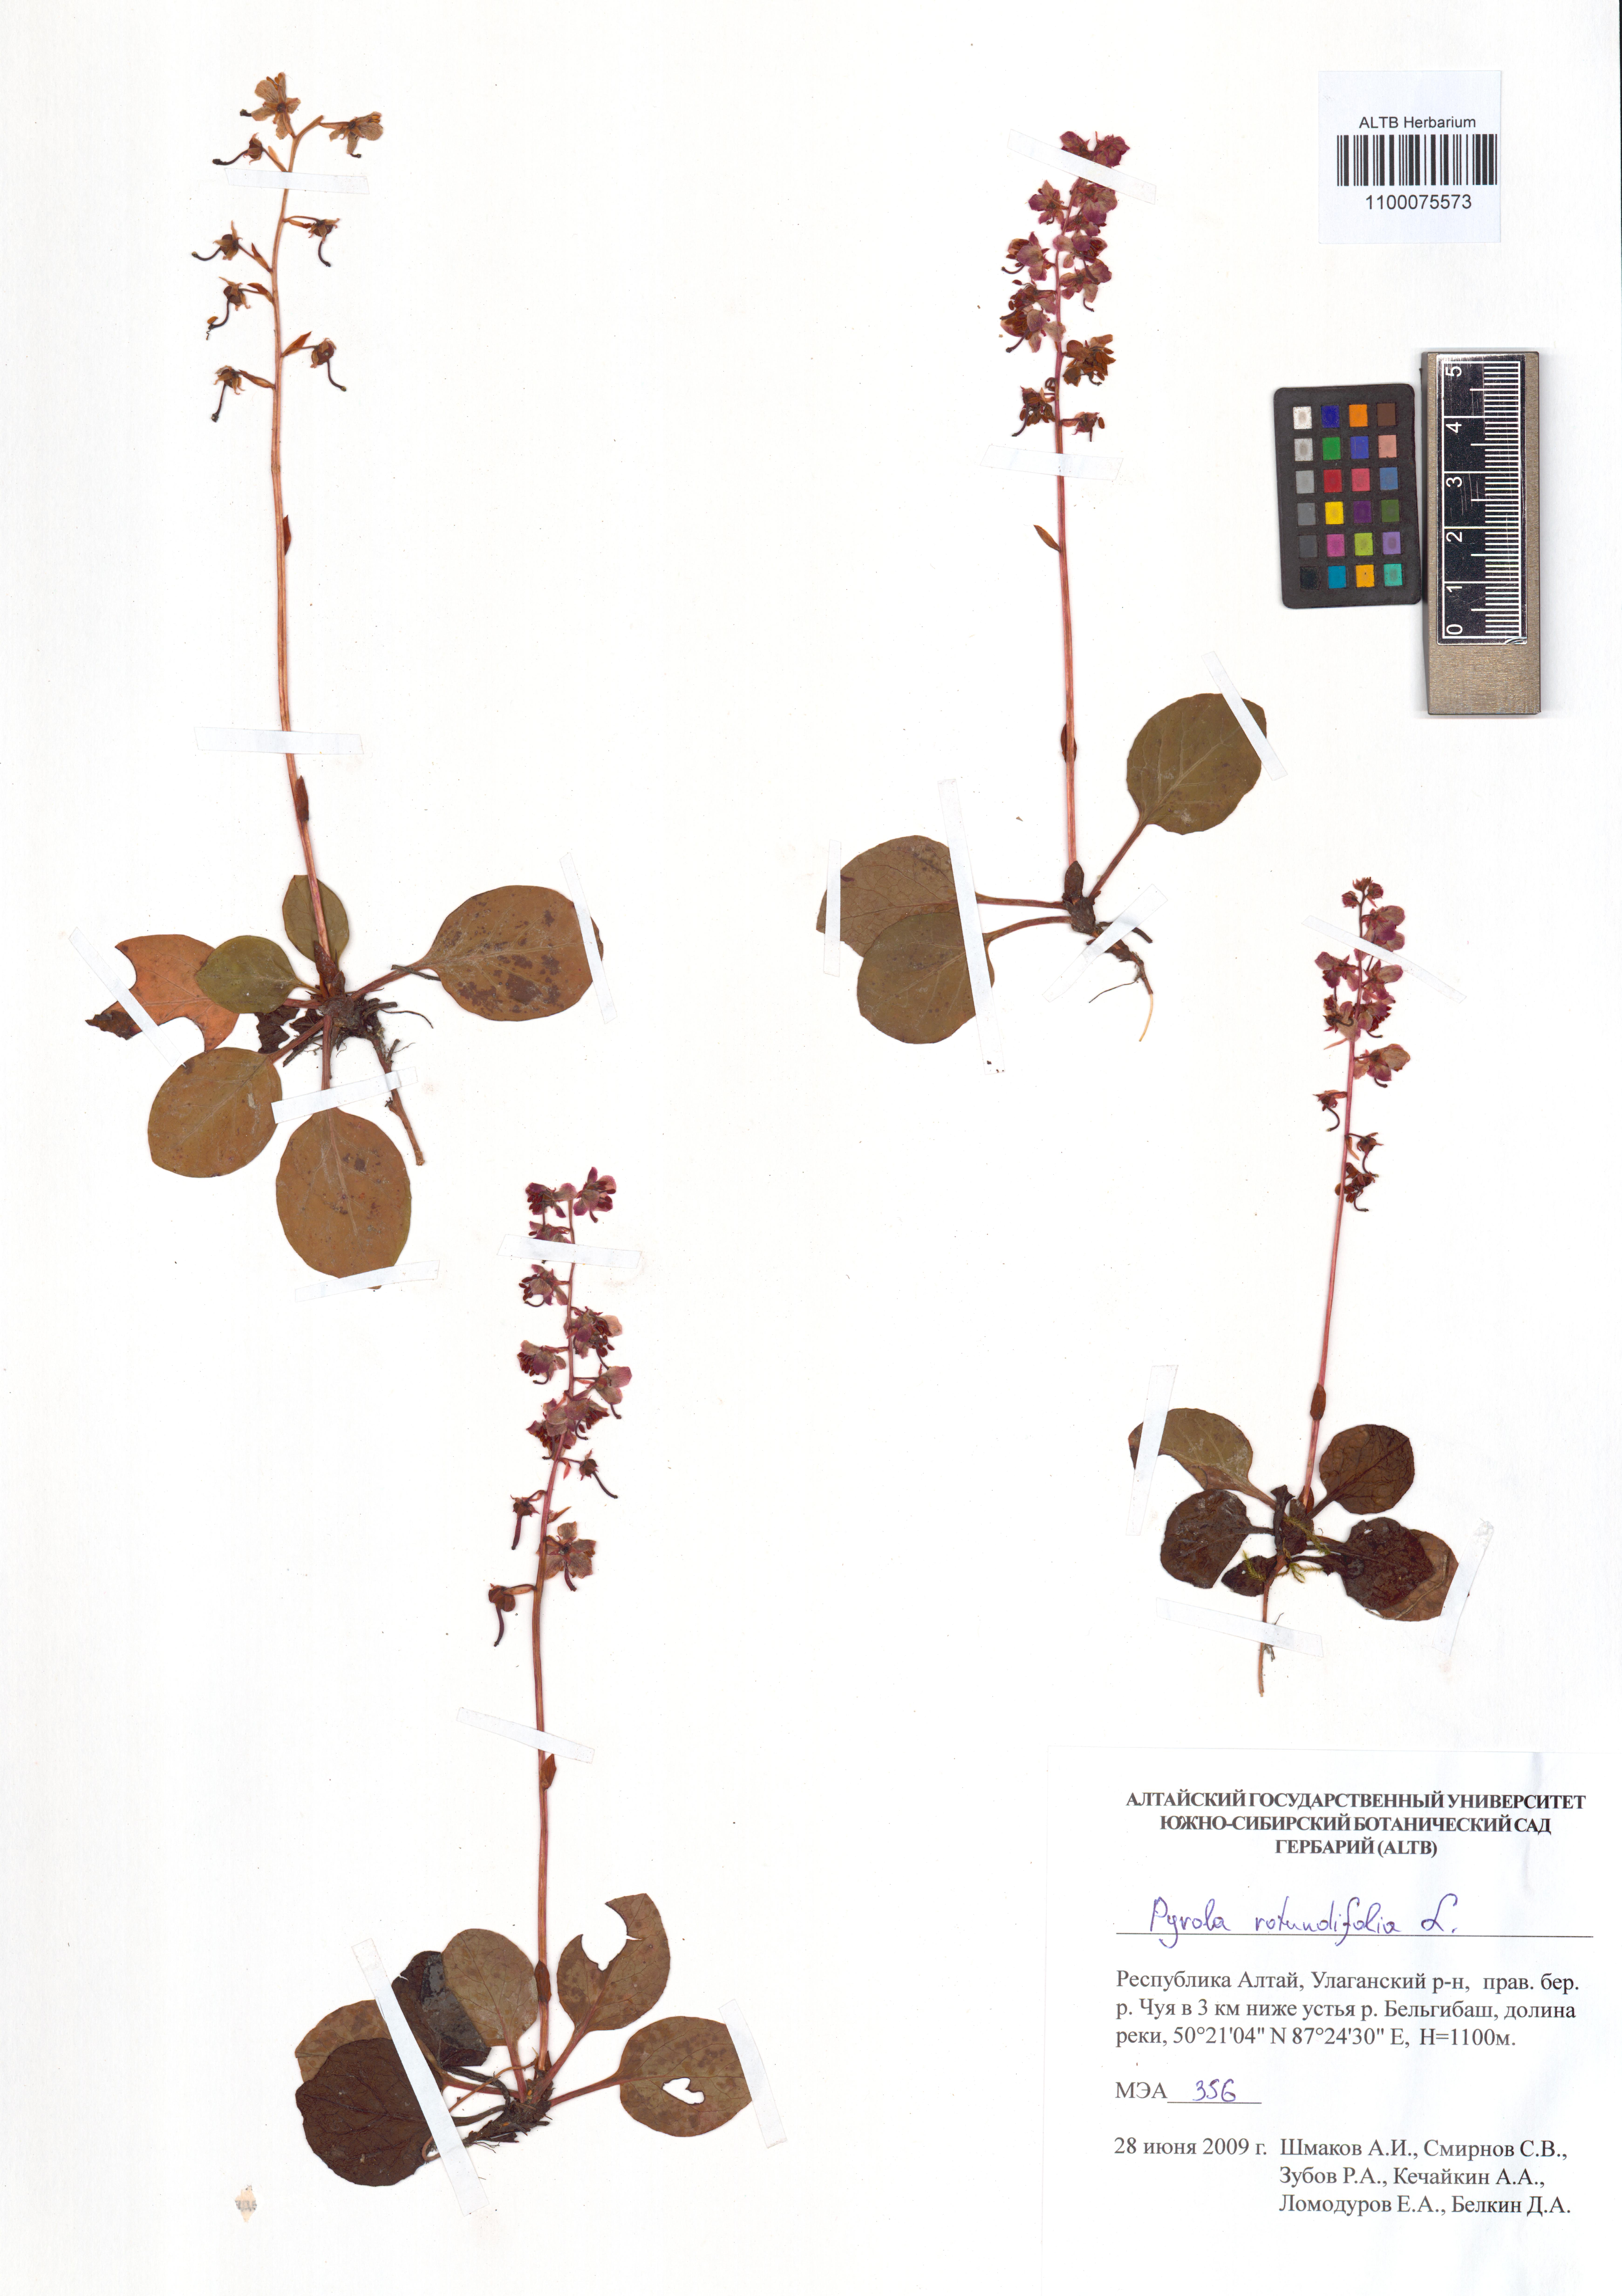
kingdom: Plantae
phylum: Tracheophyta
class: Magnoliopsida
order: Ericales
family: Ericaceae
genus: Pyrola
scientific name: Pyrola rotundifolia
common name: Round-leaved wintergreen
